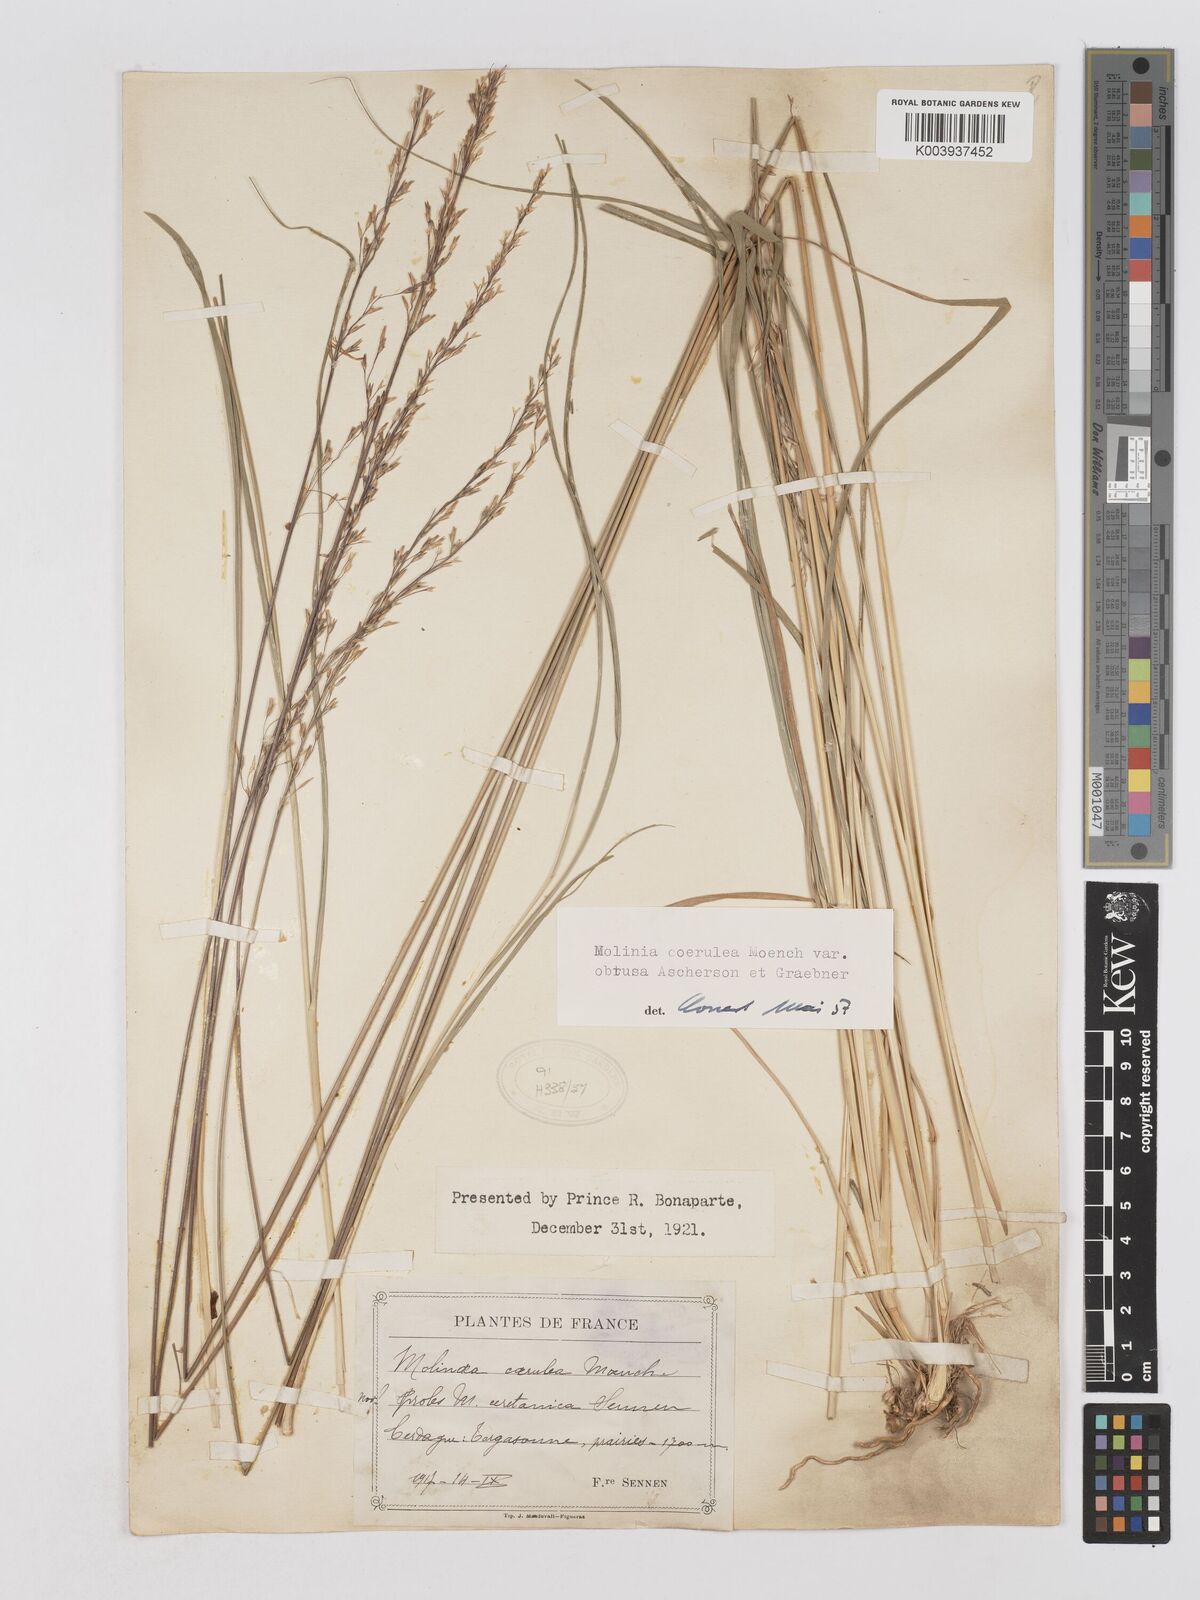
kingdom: Plantae
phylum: Tracheophyta
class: Liliopsida
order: Poales
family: Poaceae
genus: Molinia
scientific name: Molinia caerulea
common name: Purple moor-grass
